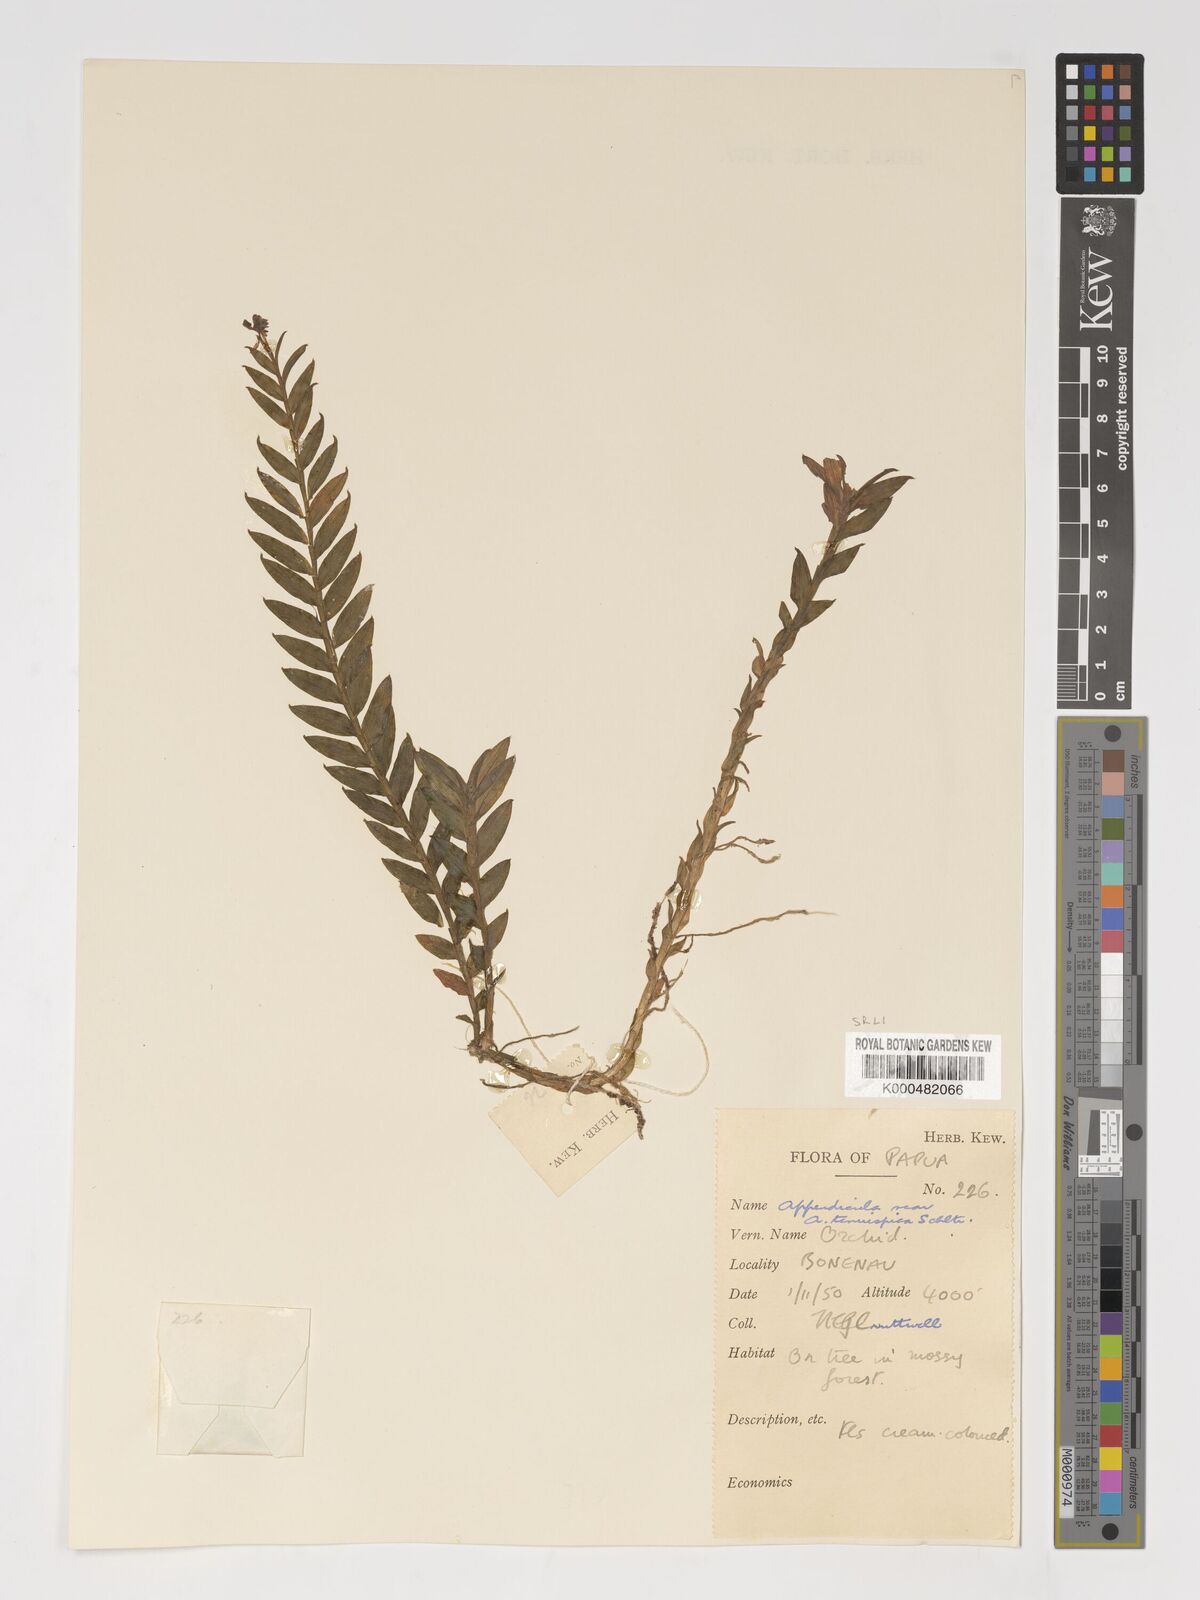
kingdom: Plantae
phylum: Tracheophyta
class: Liliopsida
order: Asparagales
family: Orchidaceae
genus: Appendicula
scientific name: Appendicula tenuispica
